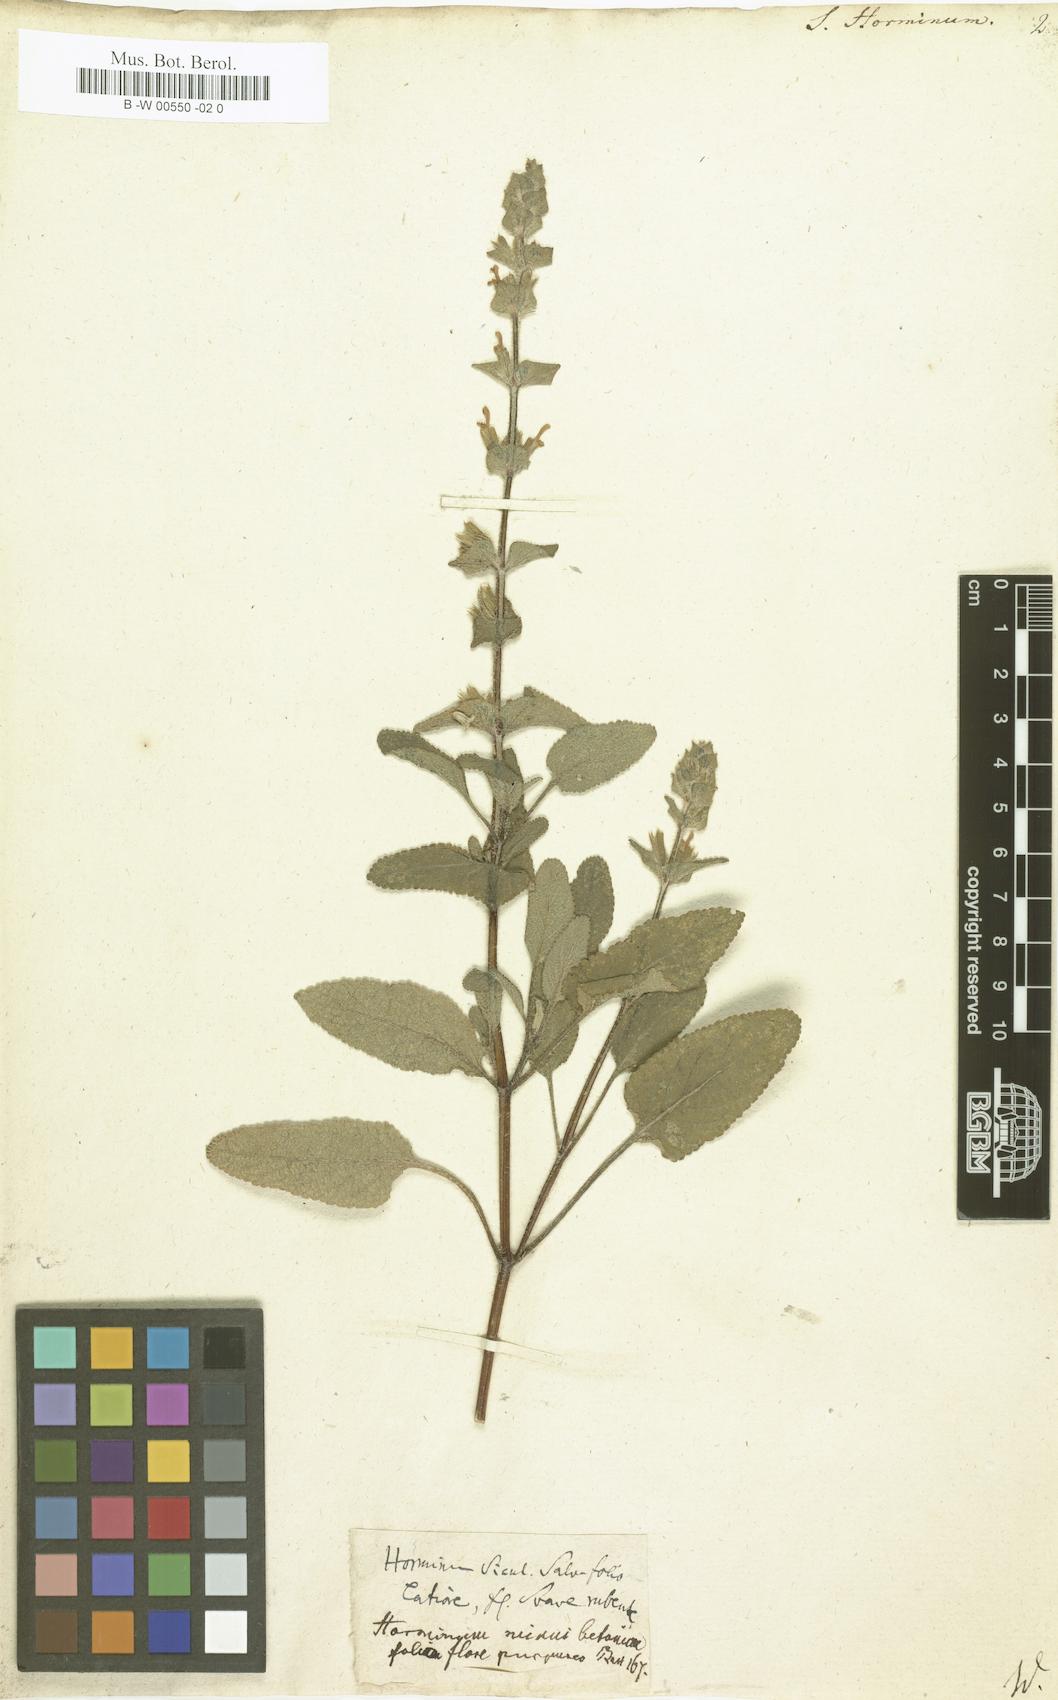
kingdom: Plantae
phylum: Tracheophyta
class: Magnoliopsida
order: Lamiales
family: Lamiaceae
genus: Salvia
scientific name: Salvia viridis
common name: Annual clary
